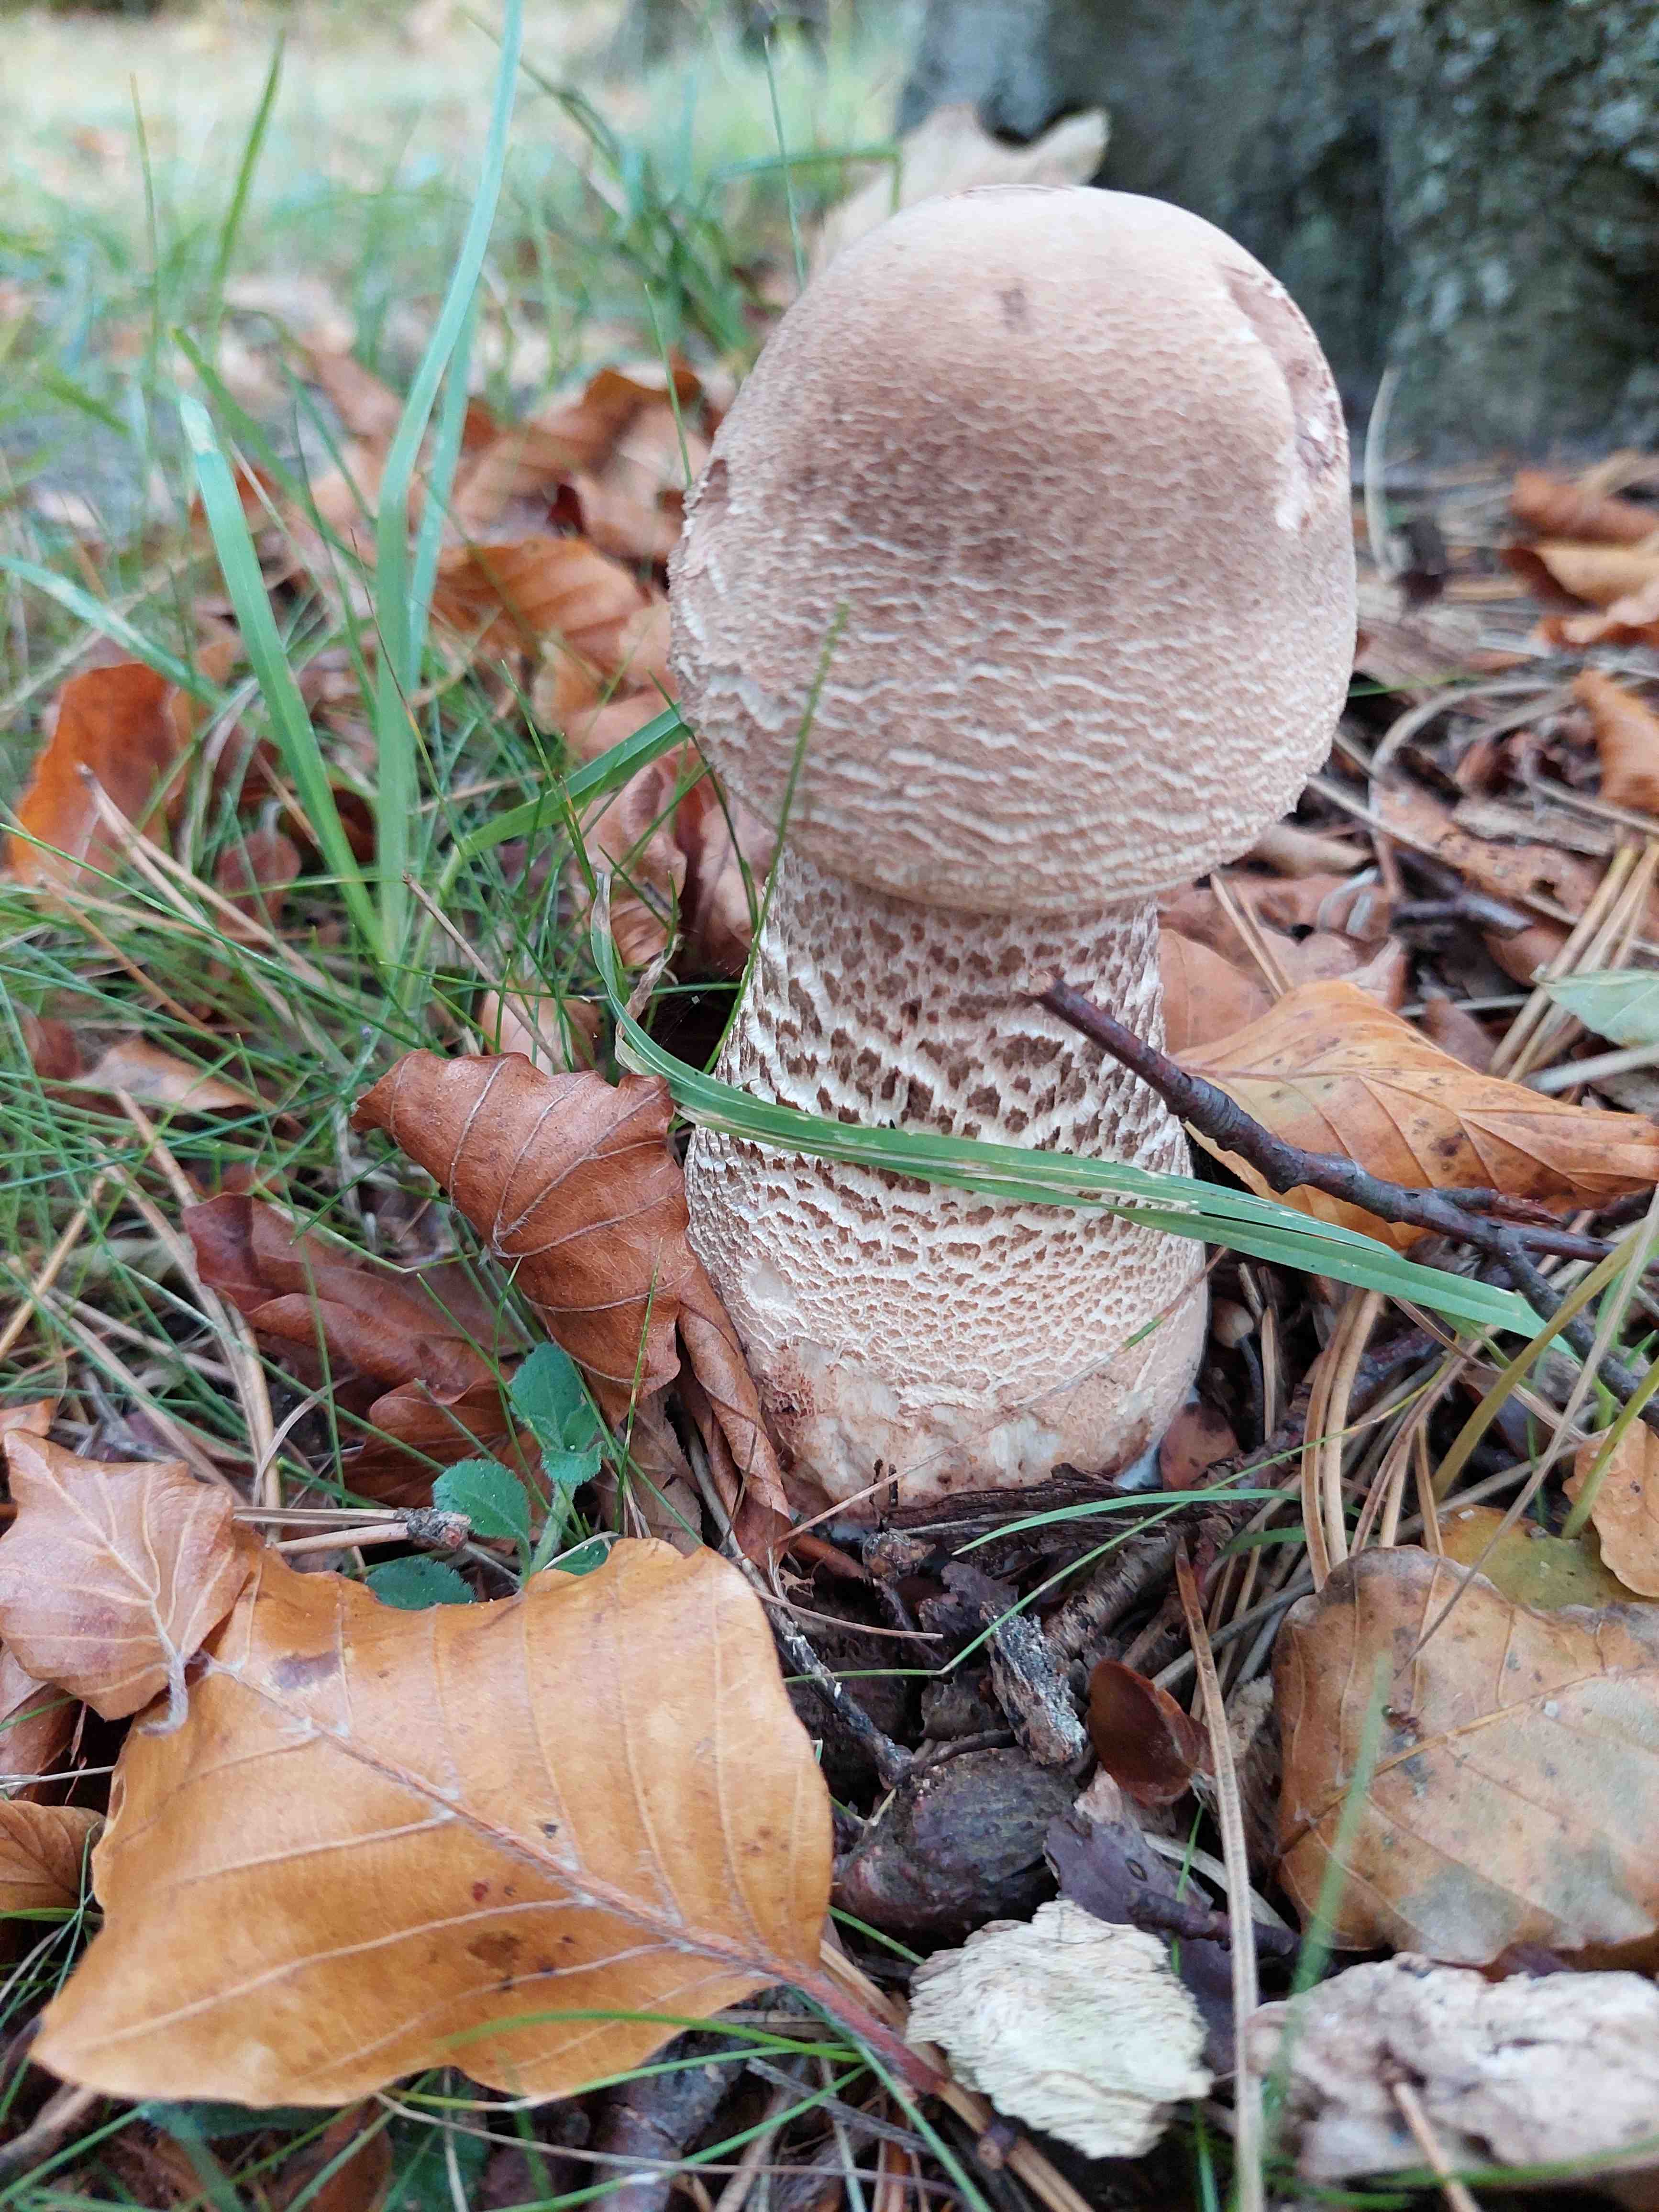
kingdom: Fungi
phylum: Basidiomycota
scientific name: Basidiomycota
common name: basidiesvampe
